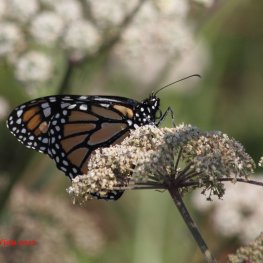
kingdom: Animalia
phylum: Arthropoda
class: Insecta
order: Lepidoptera
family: Nymphalidae
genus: Danaus
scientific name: Danaus plexippus
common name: Monarch
